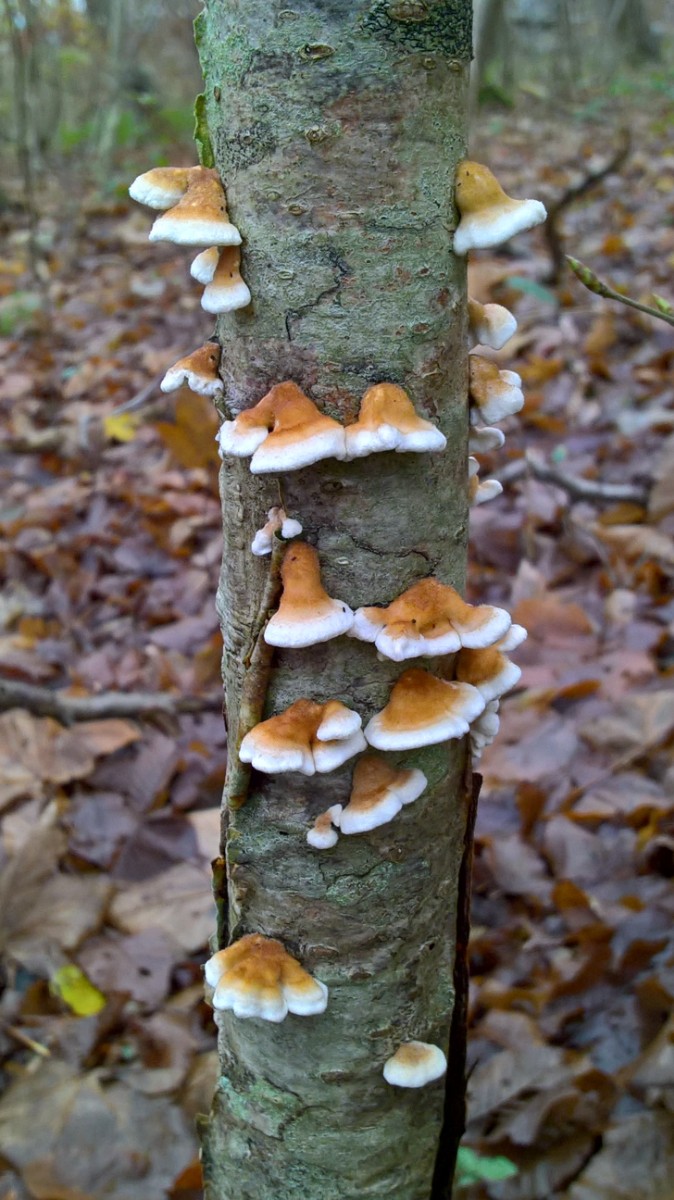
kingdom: Fungi
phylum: Basidiomycota
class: Agaricomycetes
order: Amylocorticiales
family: Amylocorticiaceae
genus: Plicaturopsis
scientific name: Plicaturopsis crispa
